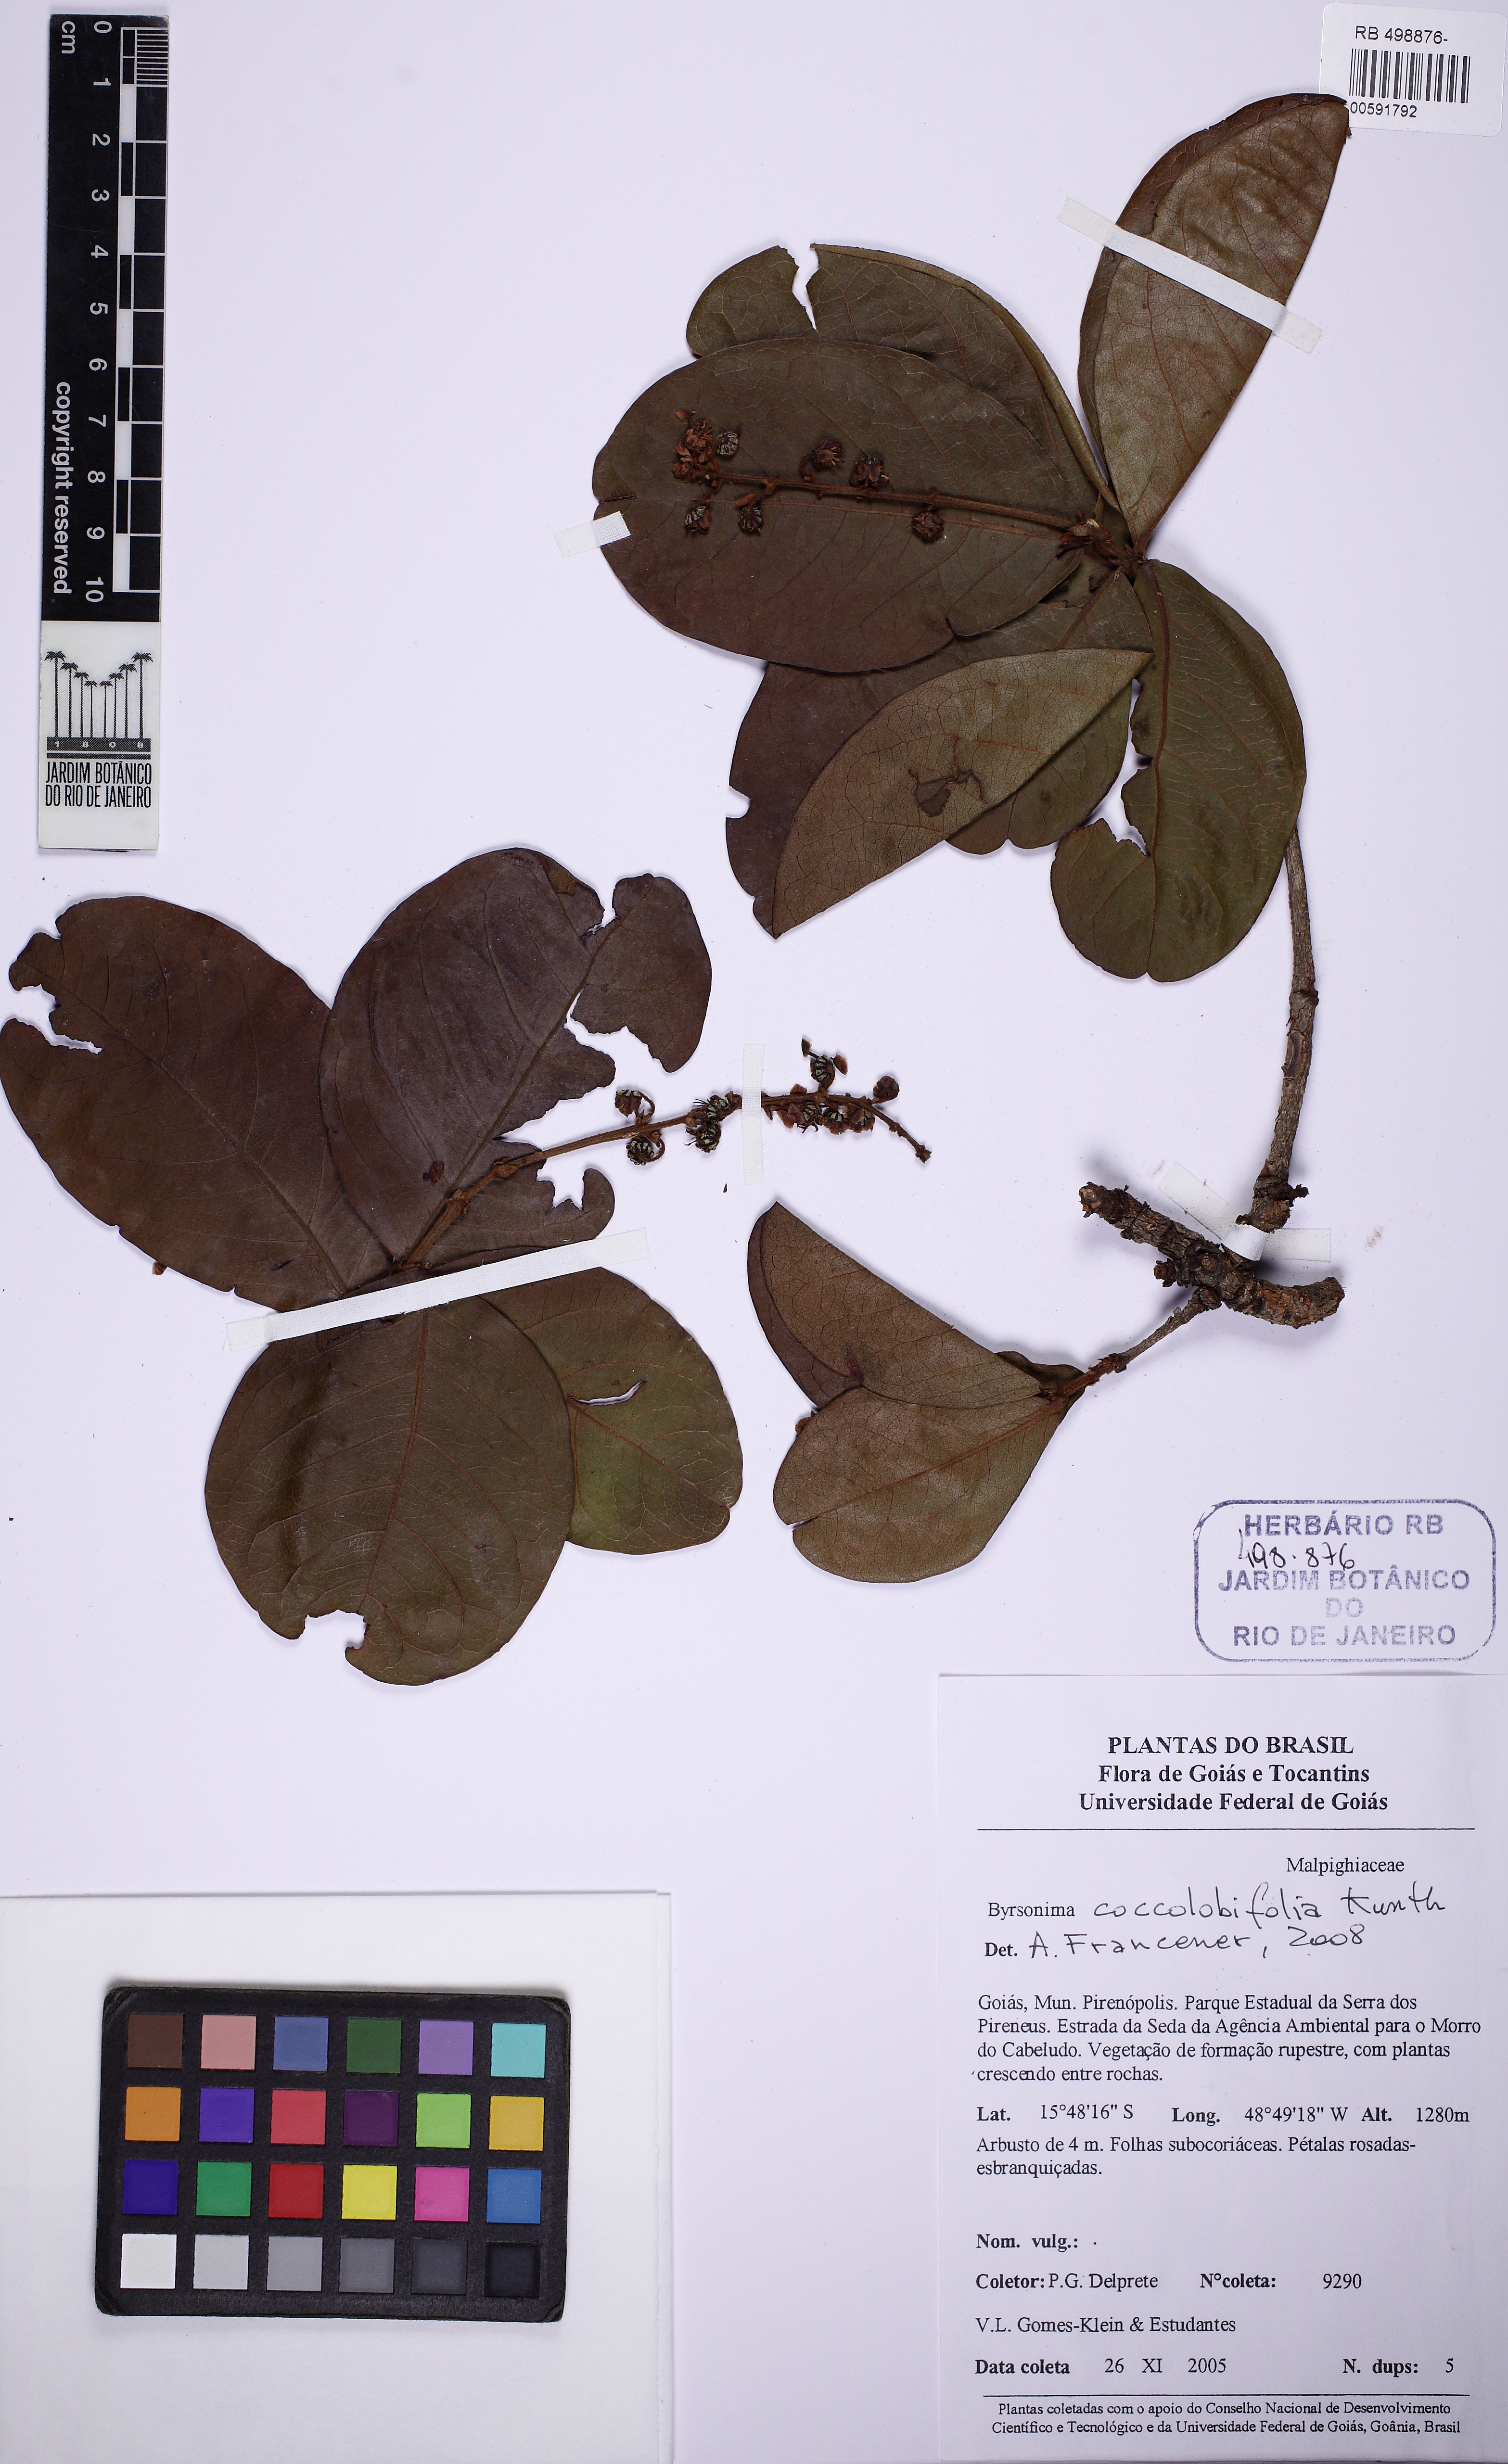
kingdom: Plantae
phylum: Tracheophyta
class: Magnoliopsida
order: Malpighiales
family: Malpighiaceae
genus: Byrsonima
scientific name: Byrsonima coccolobifolia
